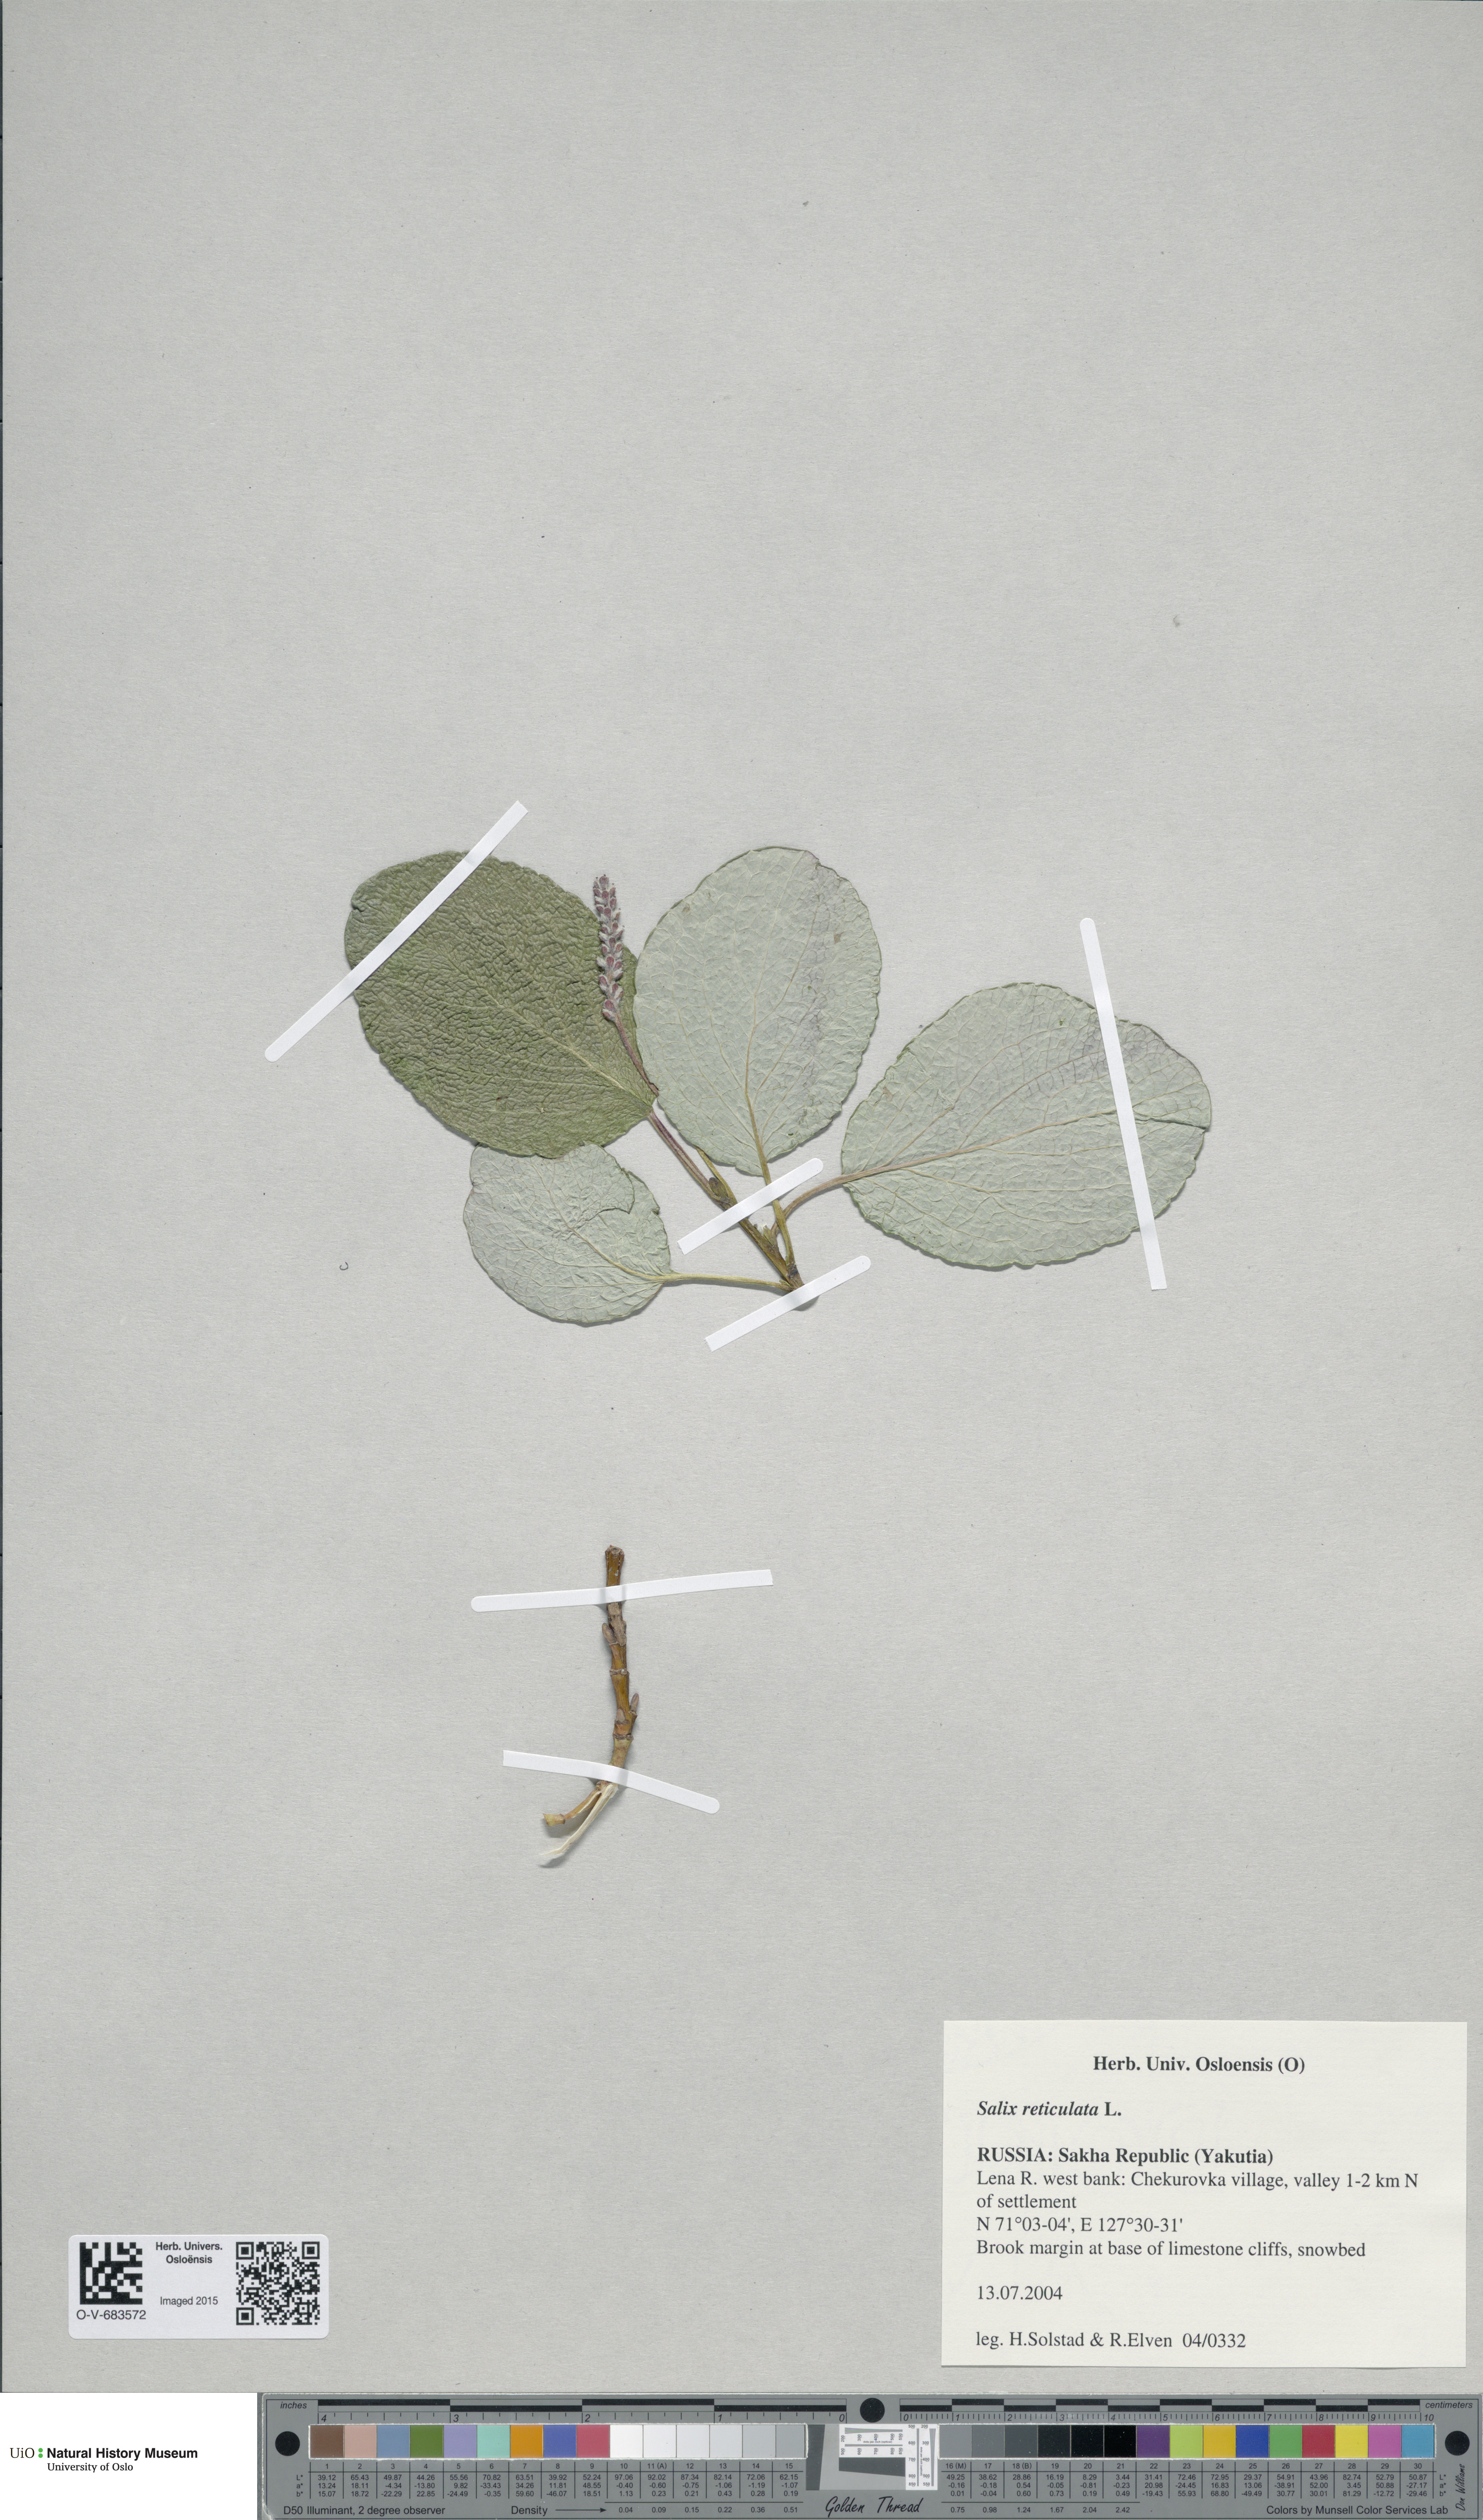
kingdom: Plantae
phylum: Tracheophyta
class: Magnoliopsida
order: Malpighiales
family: Salicaceae
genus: Salix
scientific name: Salix reticulata
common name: Net-leaved willow
